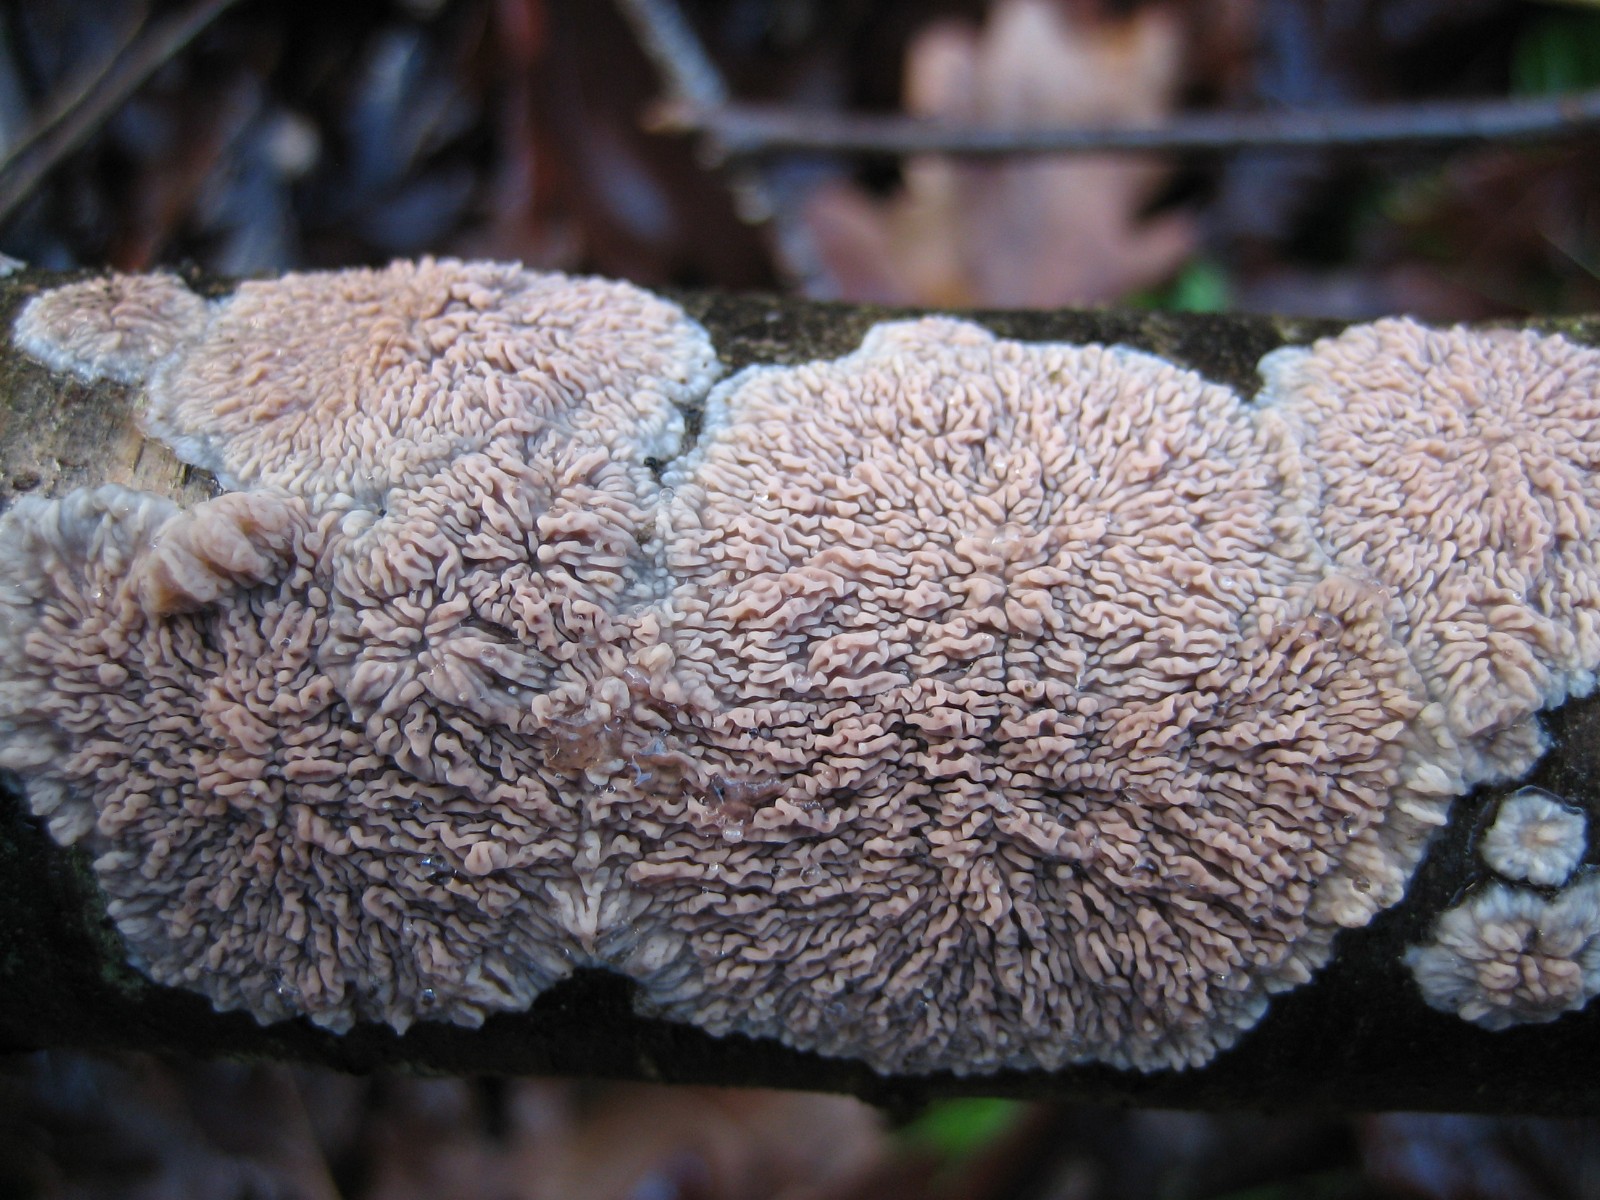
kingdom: Fungi
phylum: Basidiomycota
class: Agaricomycetes
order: Polyporales
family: Meruliaceae
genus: Phlebia
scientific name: Phlebia radiata
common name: stråle-åresvamp
